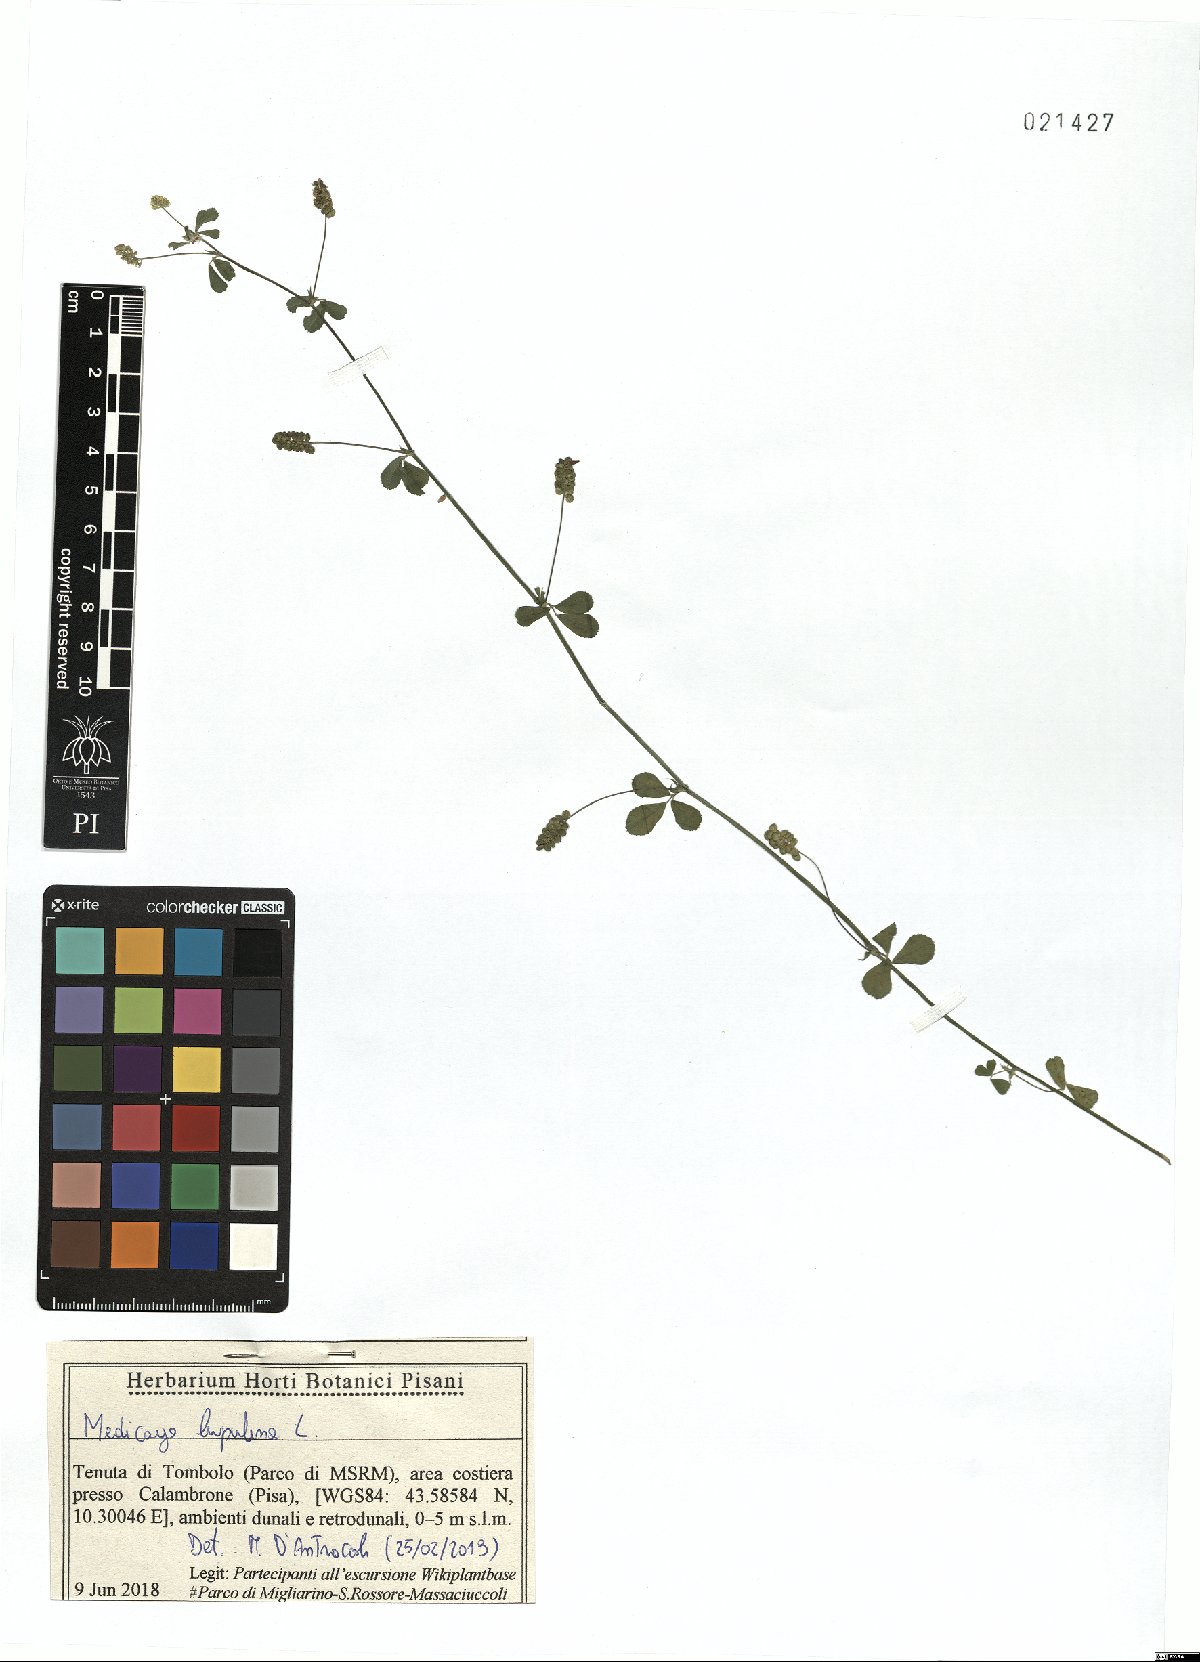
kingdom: Plantae
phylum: Tracheophyta
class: Magnoliopsida
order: Fabales
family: Fabaceae
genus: Medicago
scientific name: Medicago lupulina
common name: Black medick
